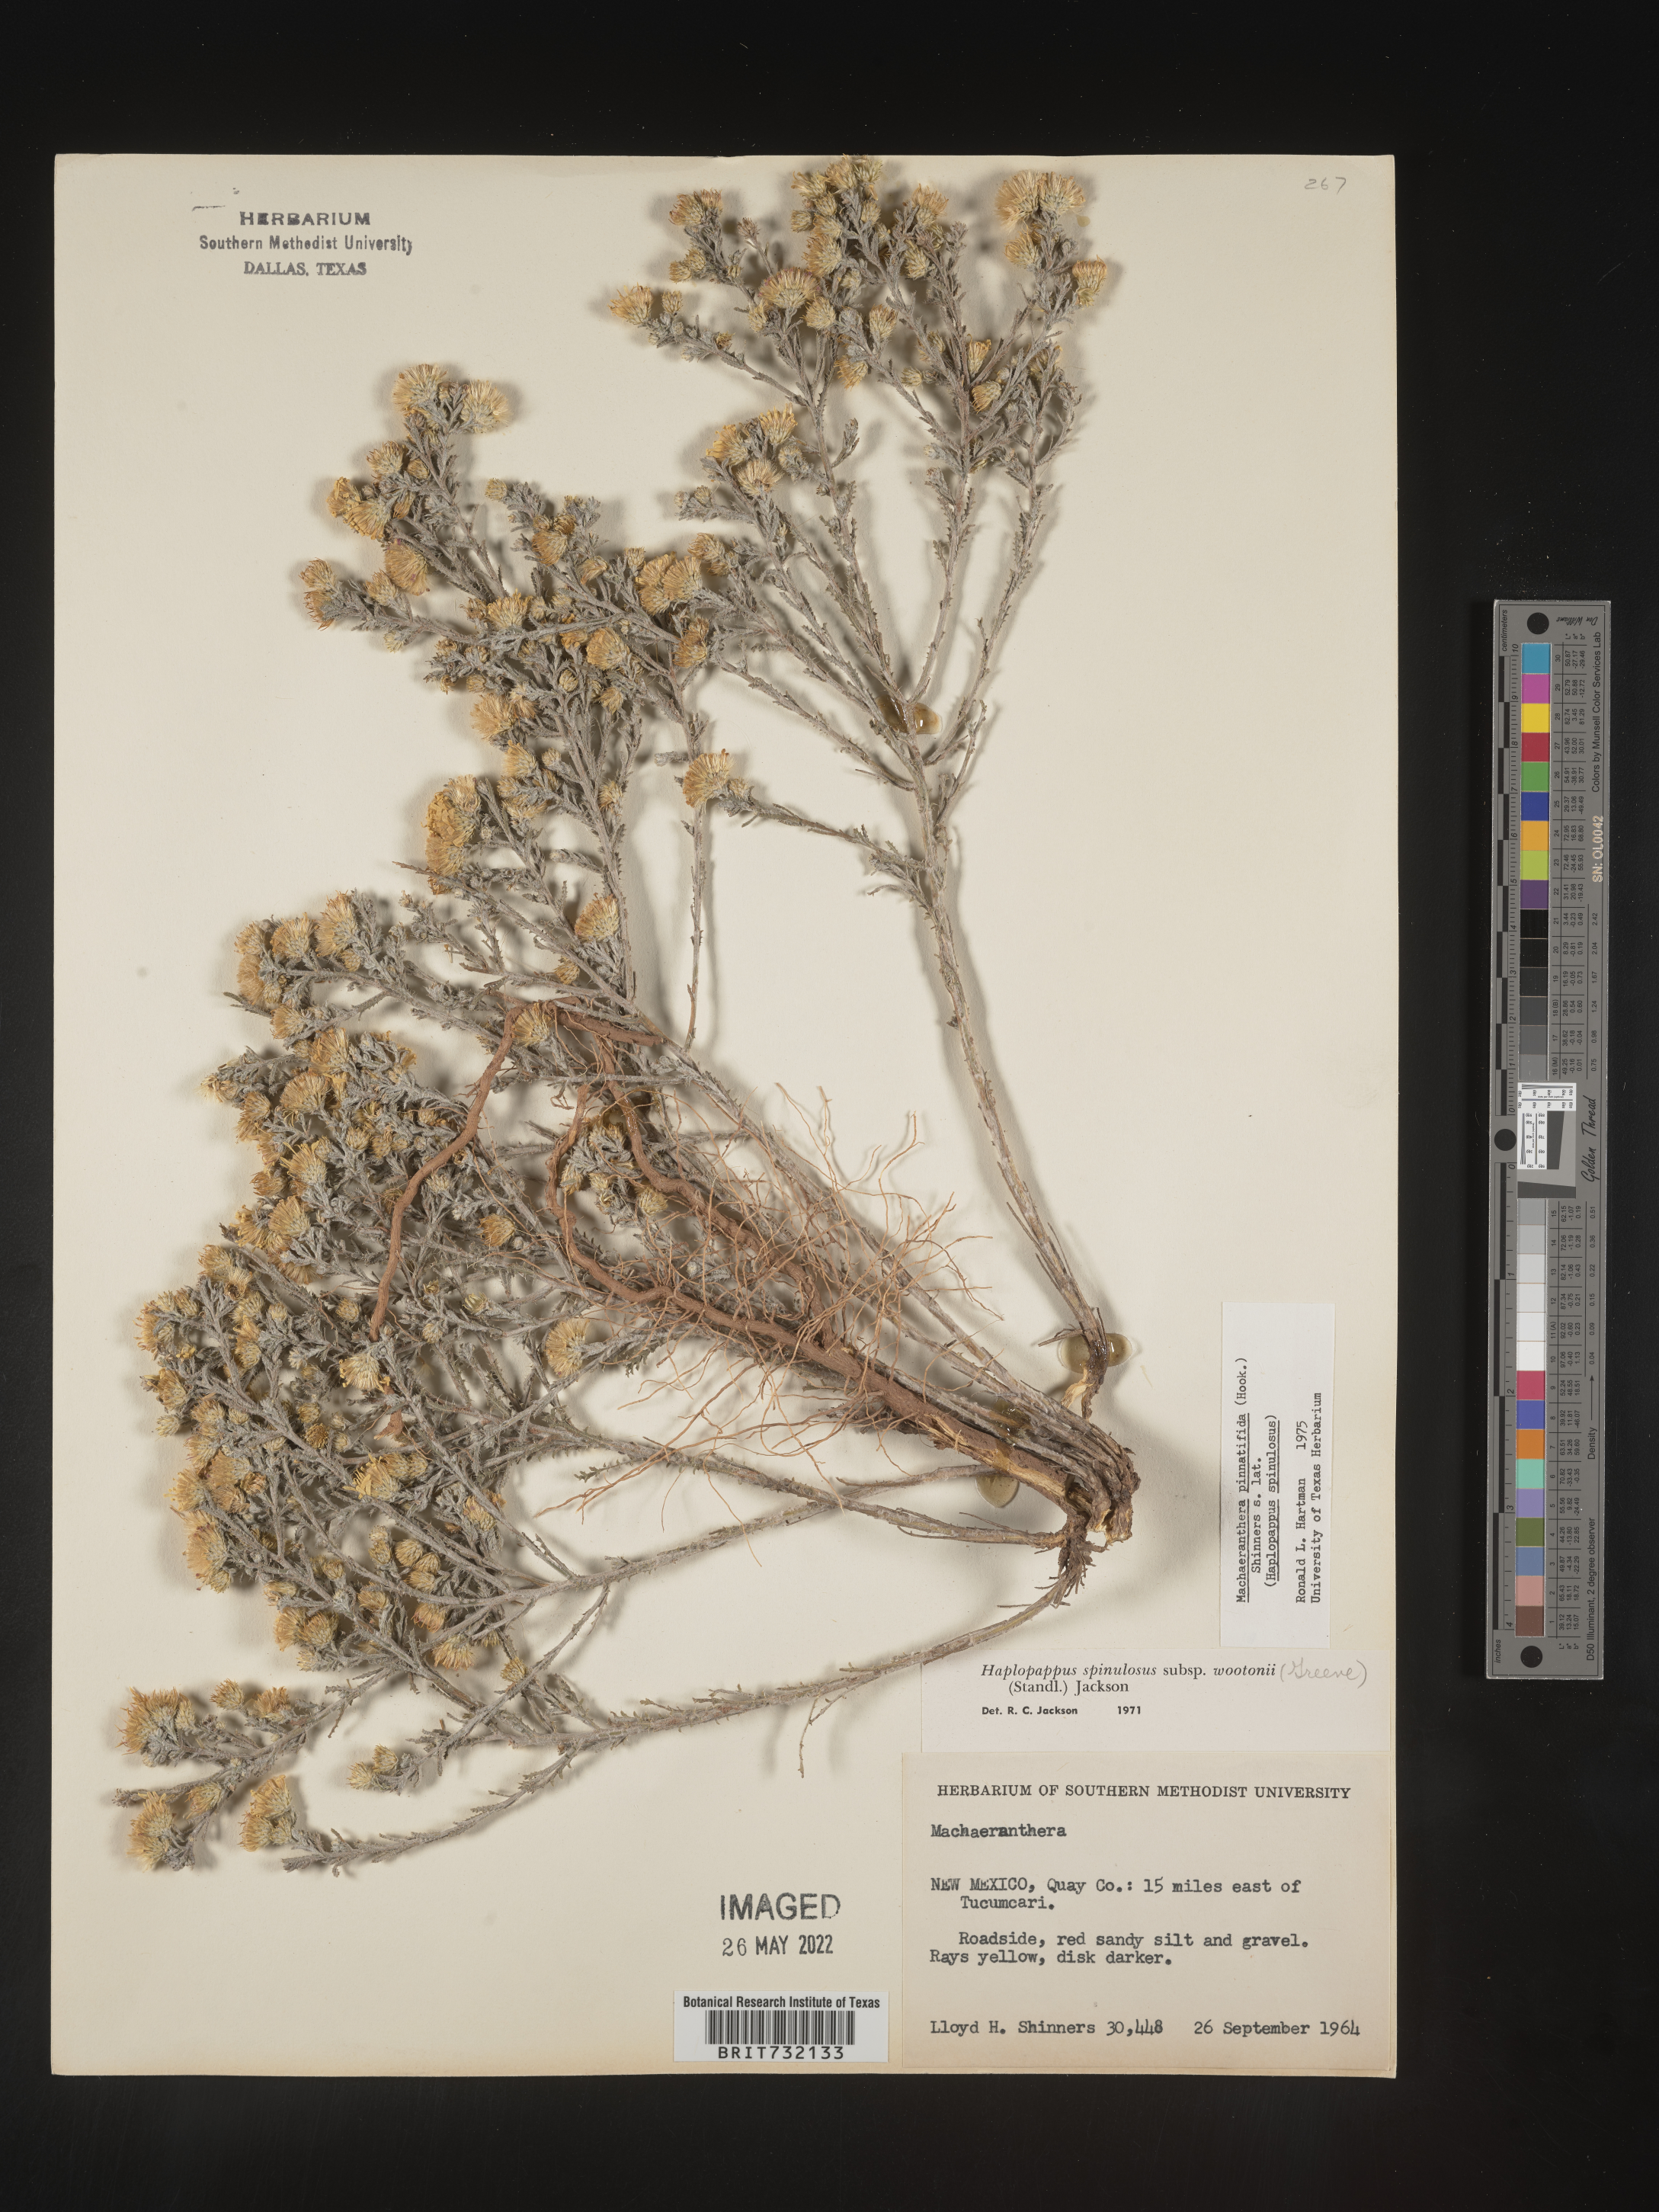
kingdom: Plantae
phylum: Tracheophyta
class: Magnoliopsida
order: Asterales
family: Asteraceae
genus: Xanthisma
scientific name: Xanthisma spinulosum
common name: Spiny goldenweed
